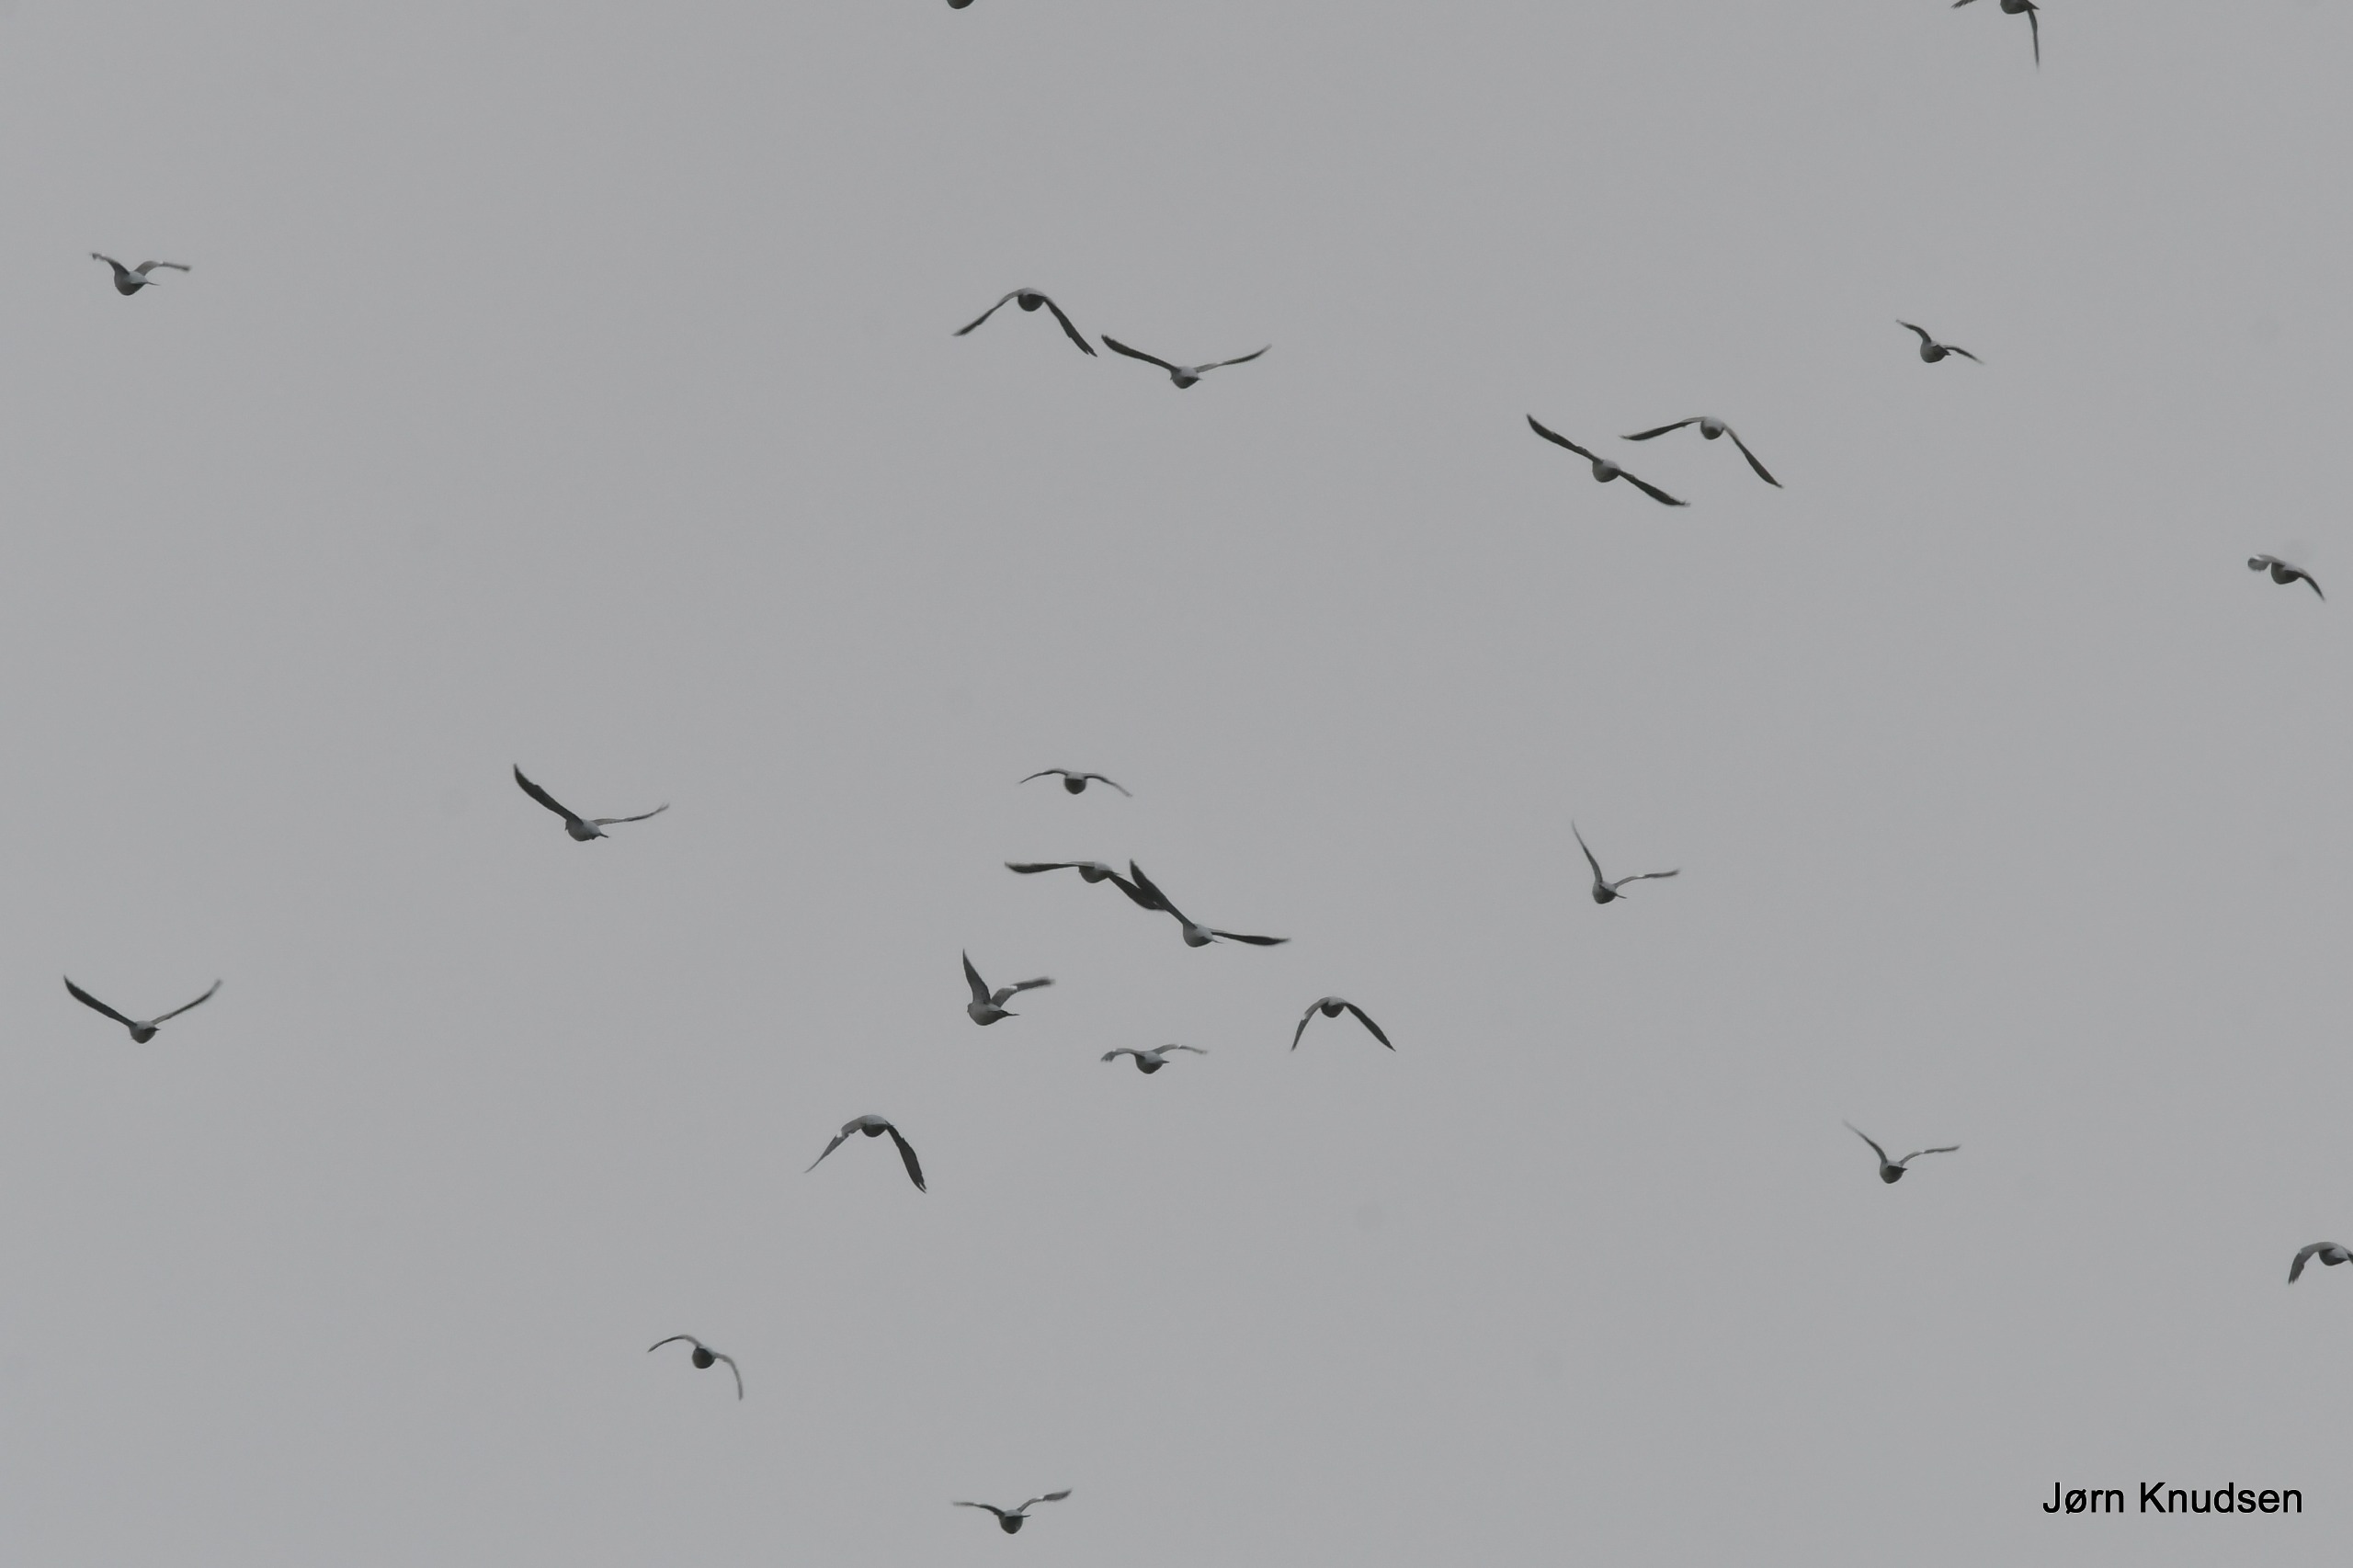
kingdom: Animalia
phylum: Chordata
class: Aves
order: Columbiformes
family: Columbidae
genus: Columba
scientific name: Columba palumbus
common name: Ringdue
